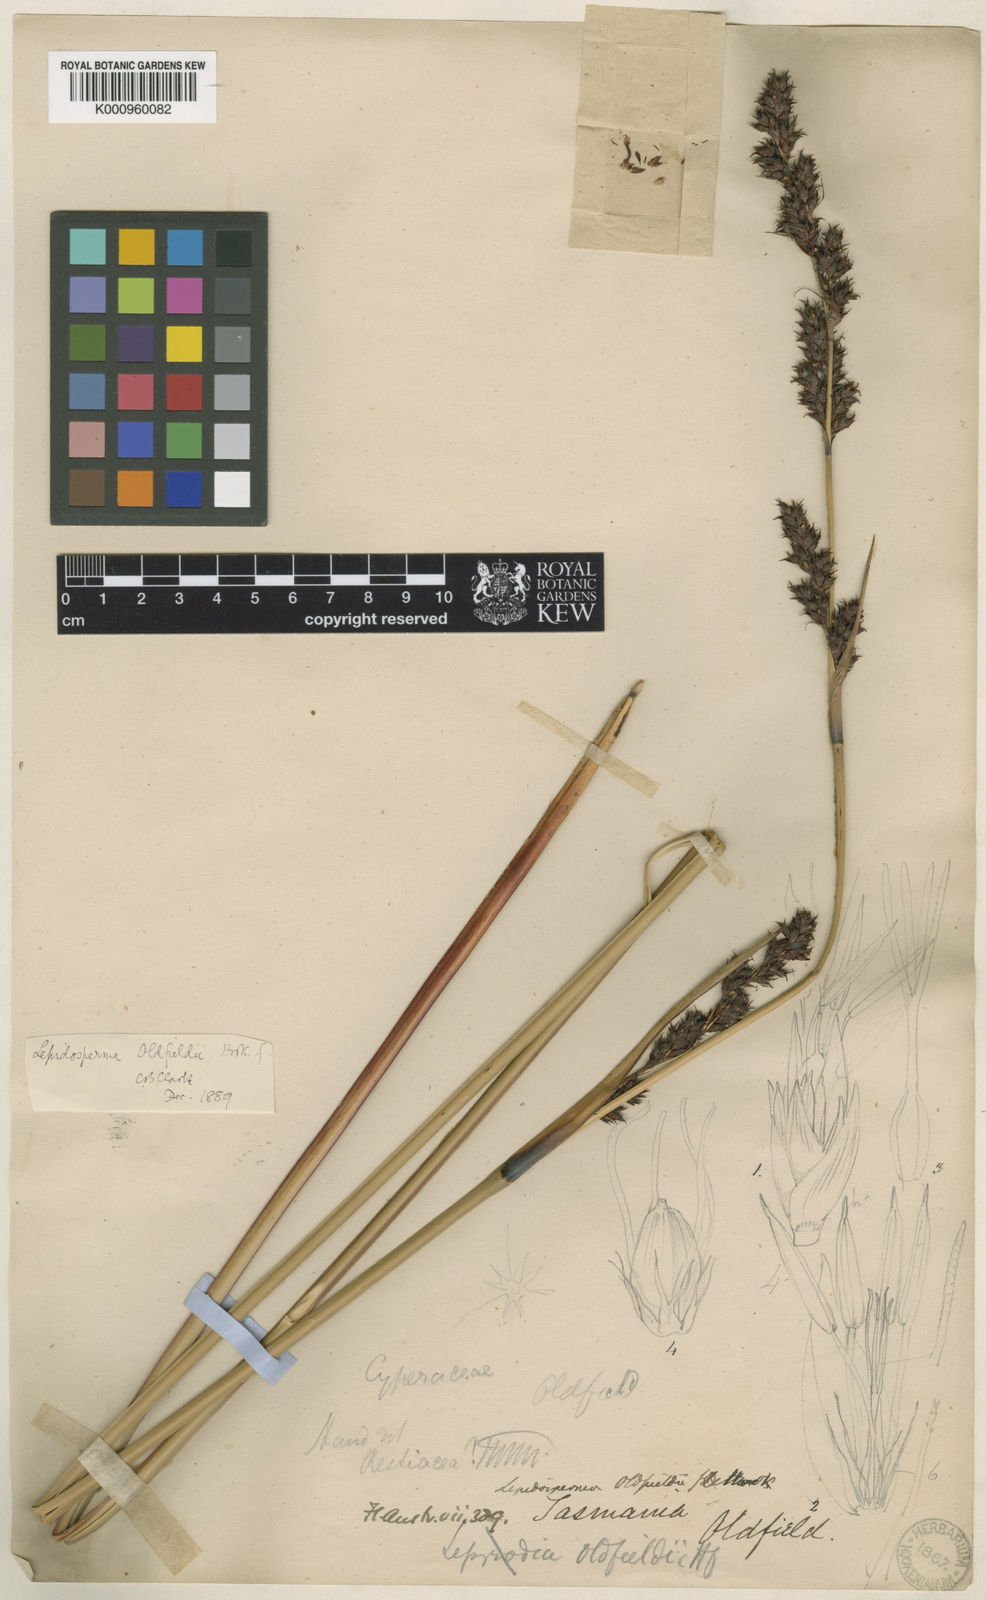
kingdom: Plantae
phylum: Tracheophyta
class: Liliopsida
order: Poales
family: Cyperaceae
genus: Lepidosperma
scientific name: Lepidosperma oldfieldii
